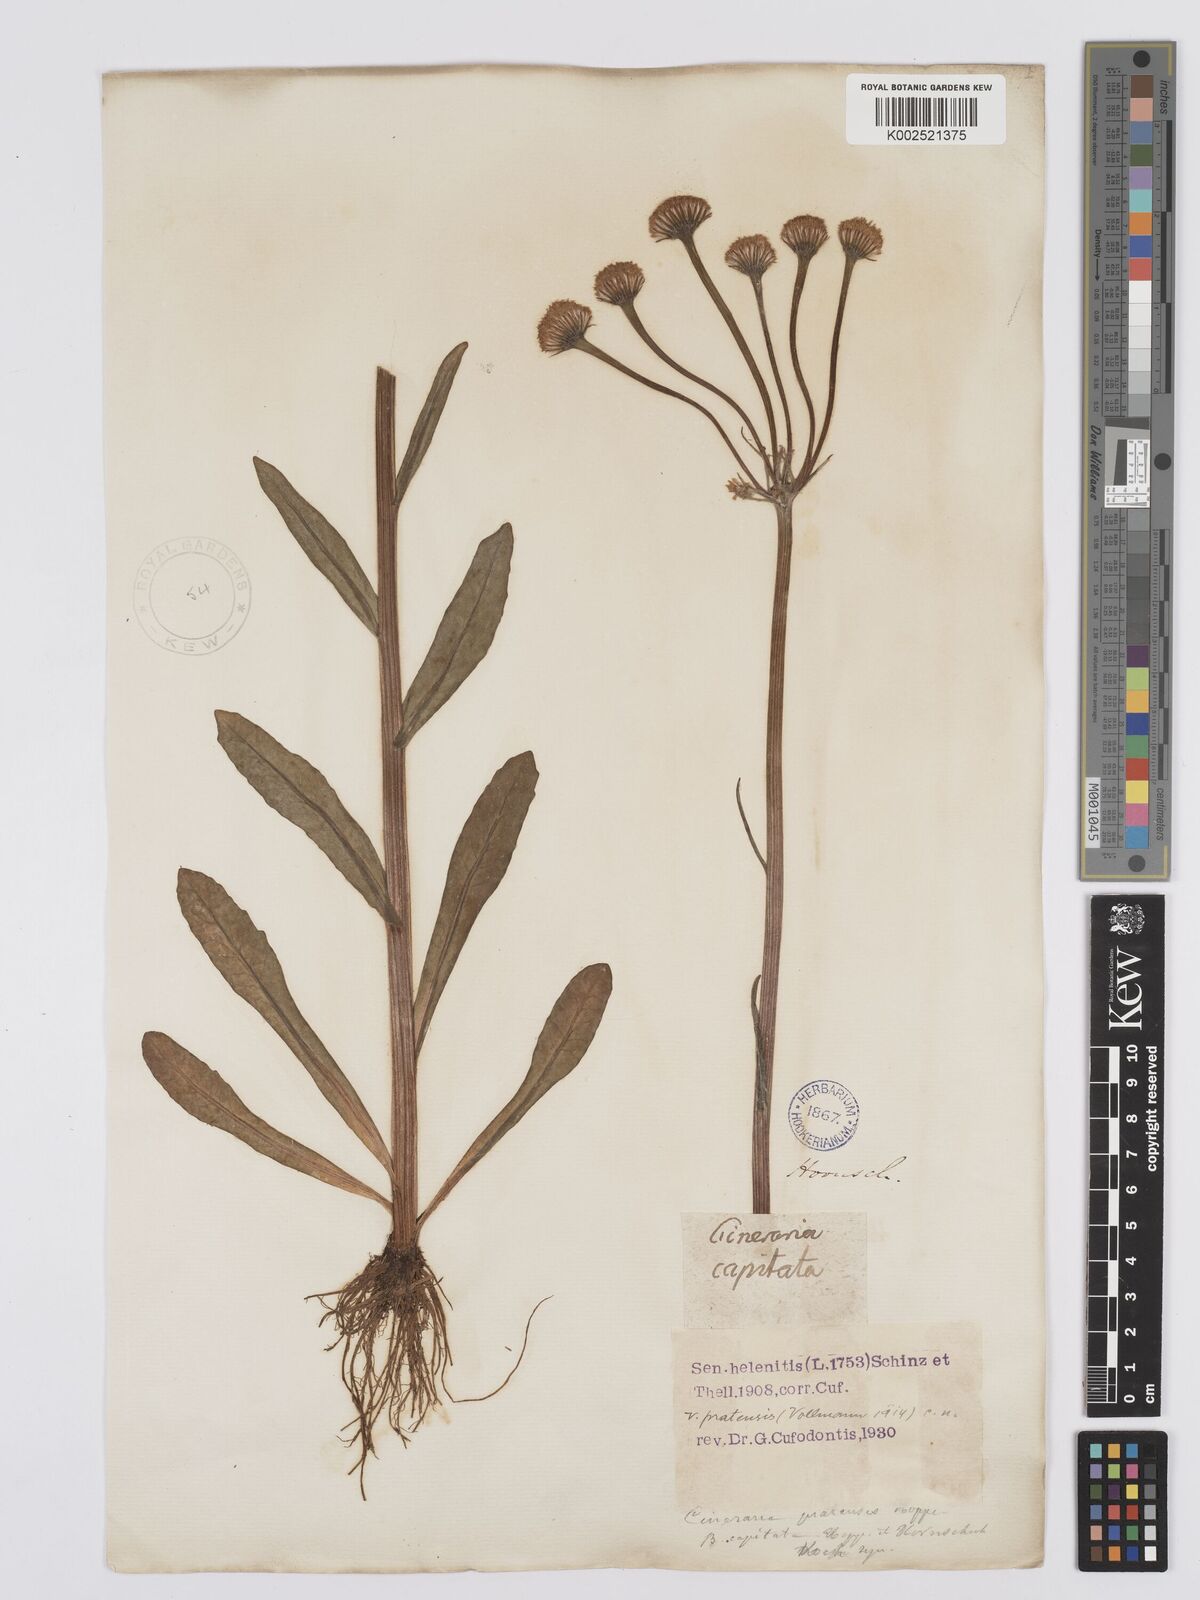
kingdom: Plantae
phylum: Tracheophyta
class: Magnoliopsida
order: Asterales
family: Asteraceae
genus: Tephroseris
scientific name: Tephroseris helenitis
